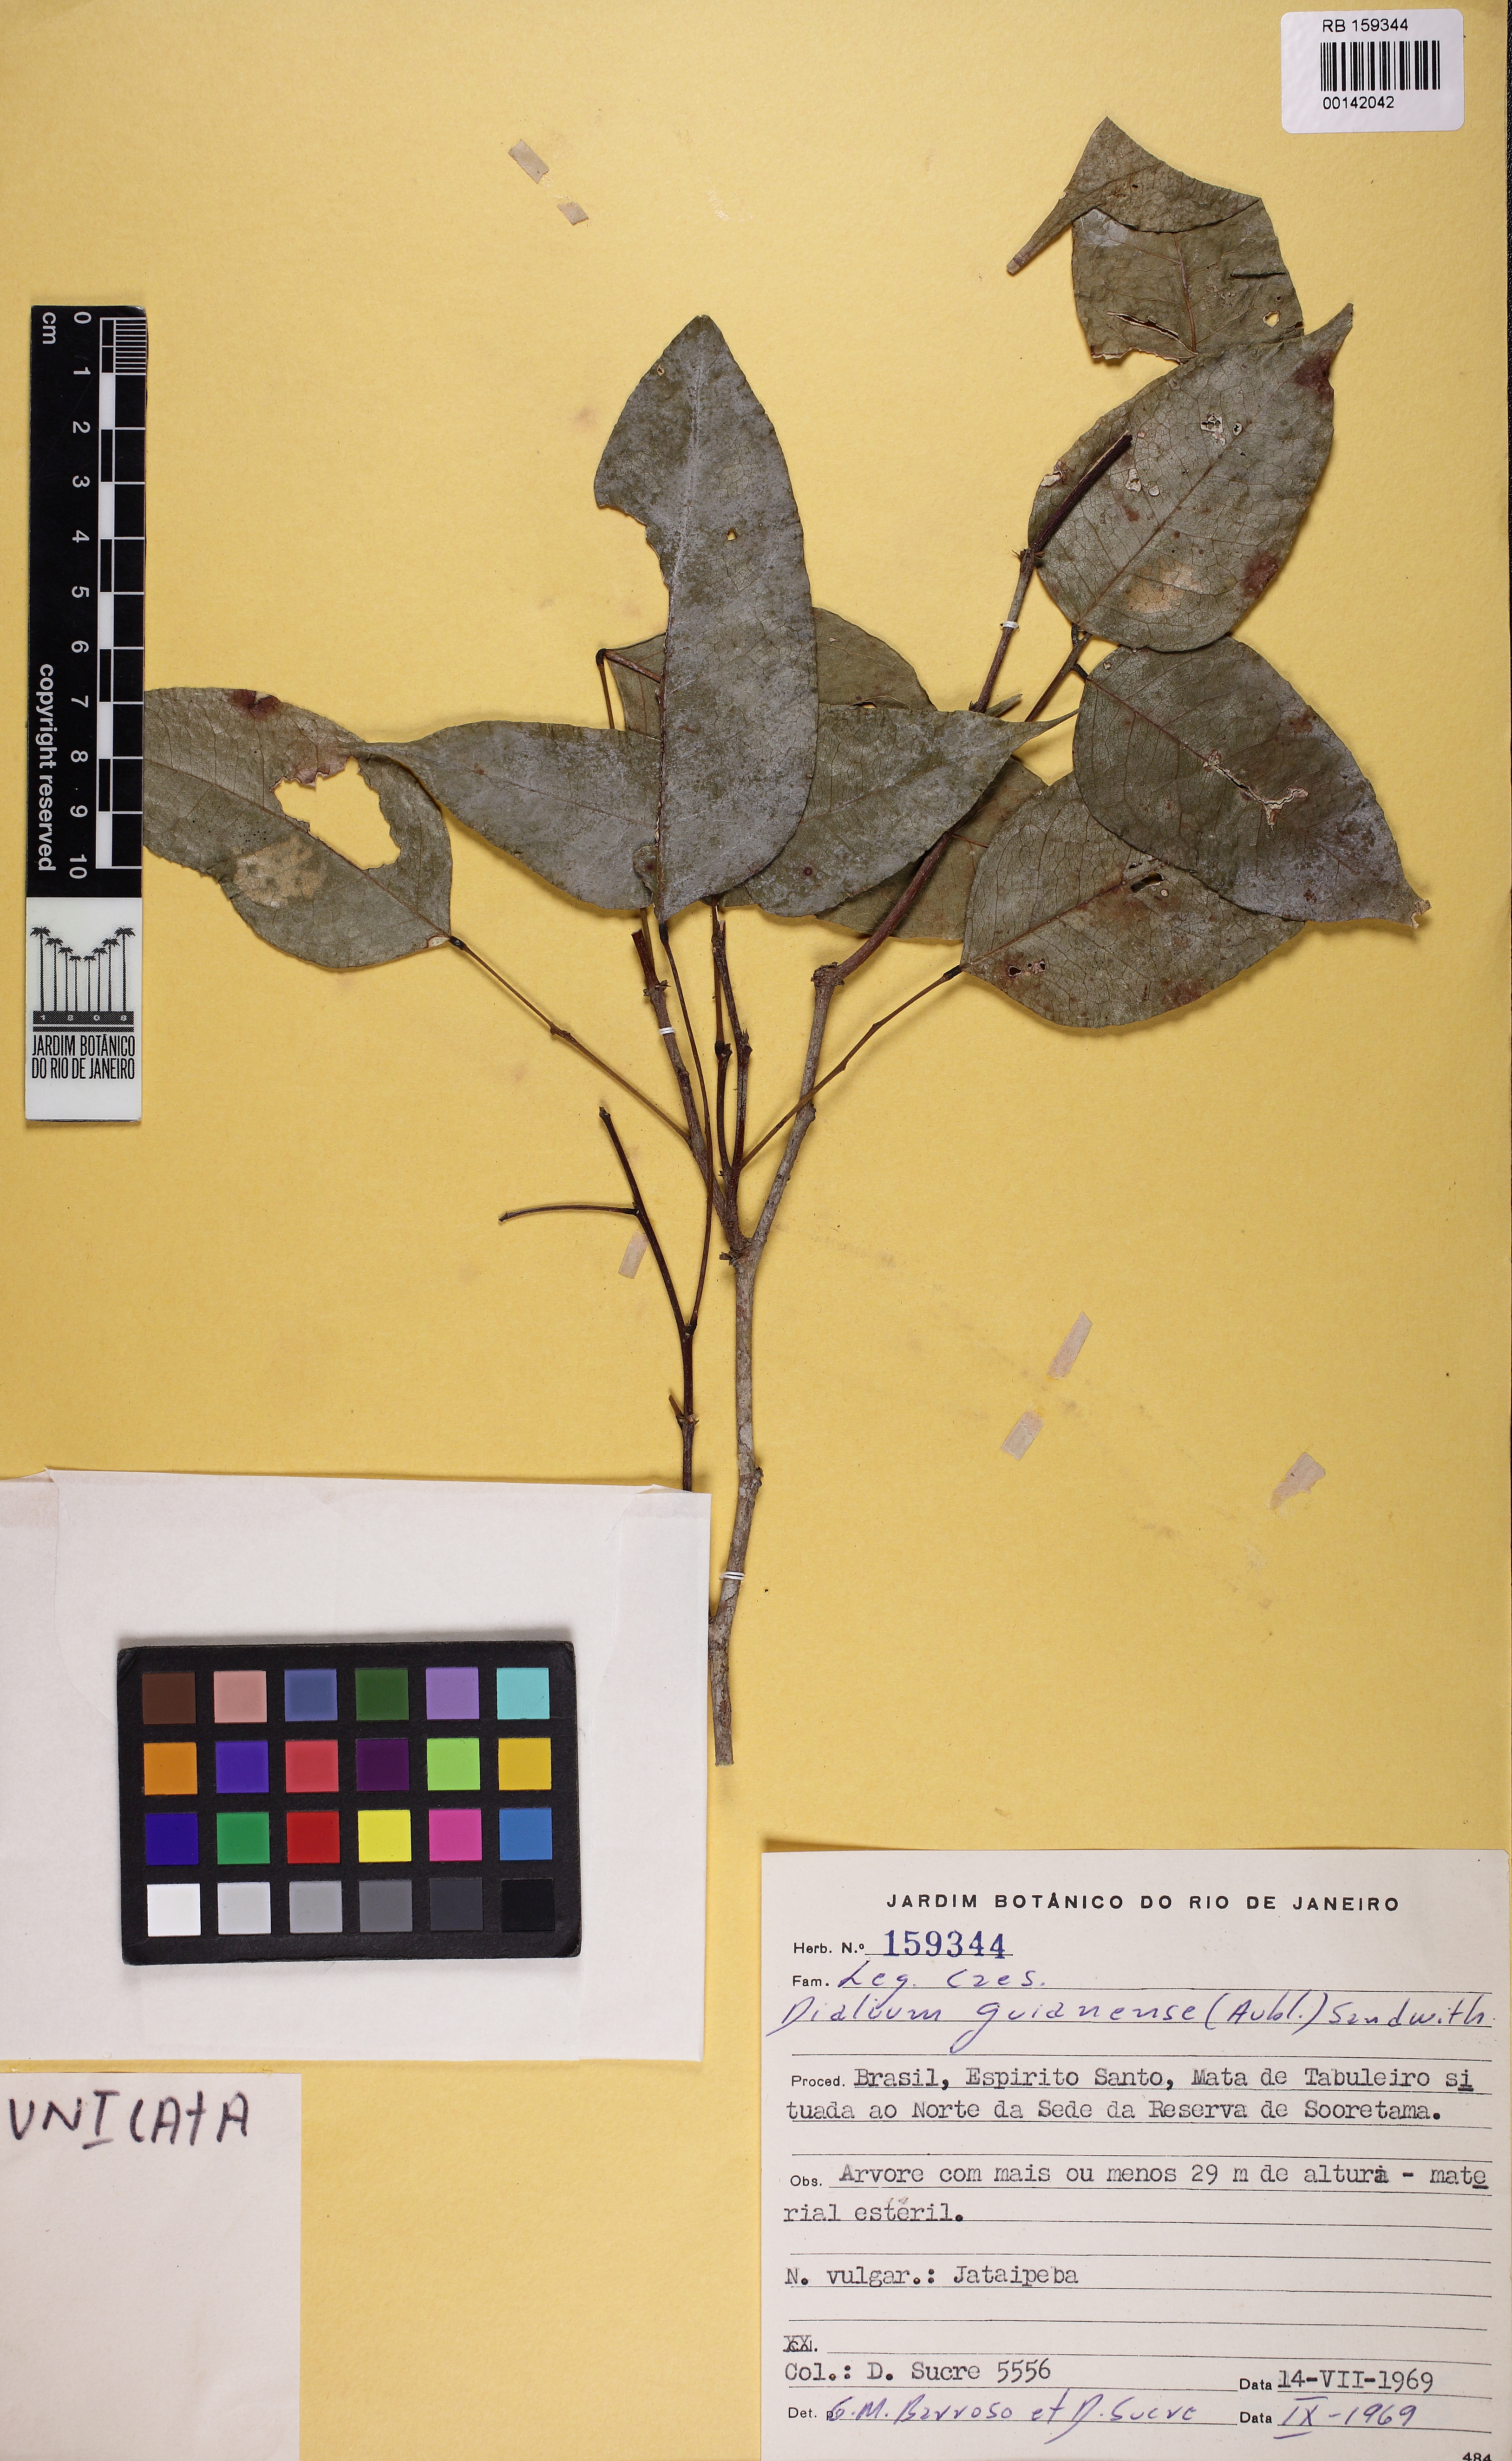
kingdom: Plantae
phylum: Tracheophyta
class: Magnoliopsida
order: Fabales
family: Fabaceae
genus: Dialium
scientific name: Dialium guianense
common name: Ironwood
